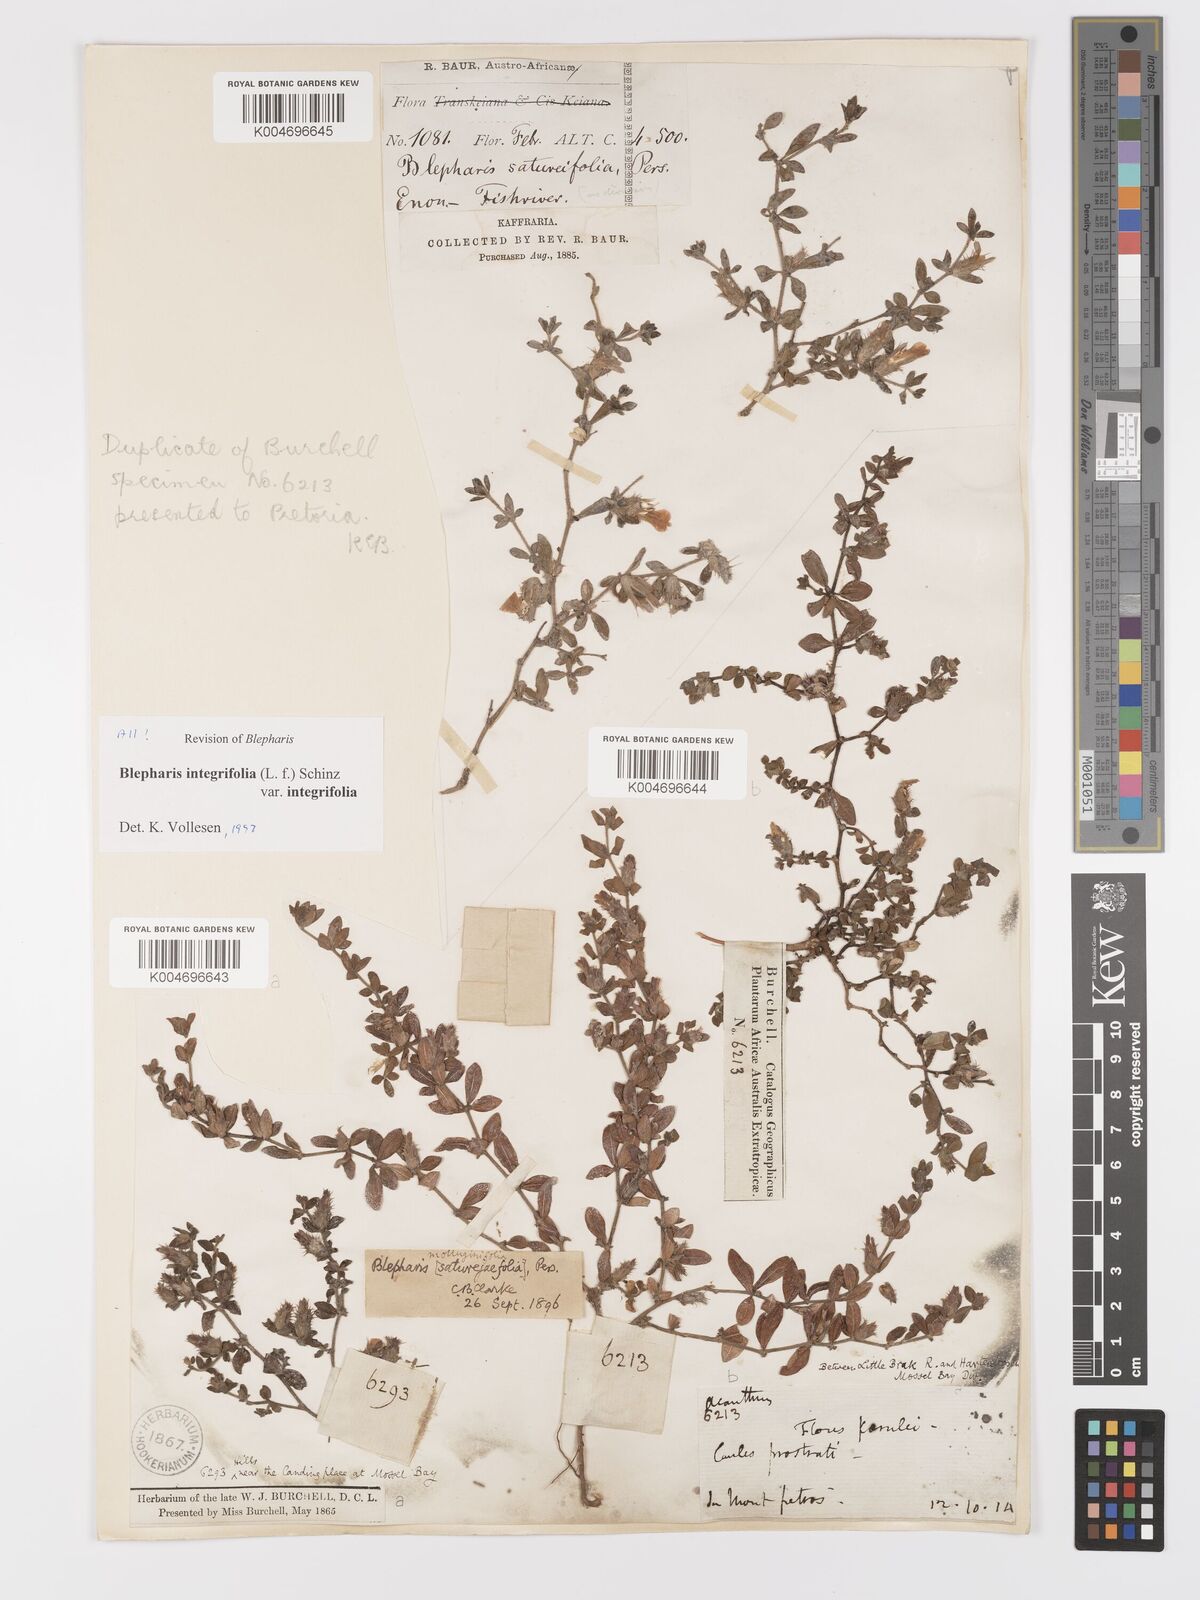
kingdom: Plantae
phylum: Tracheophyta
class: Magnoliopsida
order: Lamiales
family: Acanthaceae
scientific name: Acanthaceae
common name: Acanthaceae
